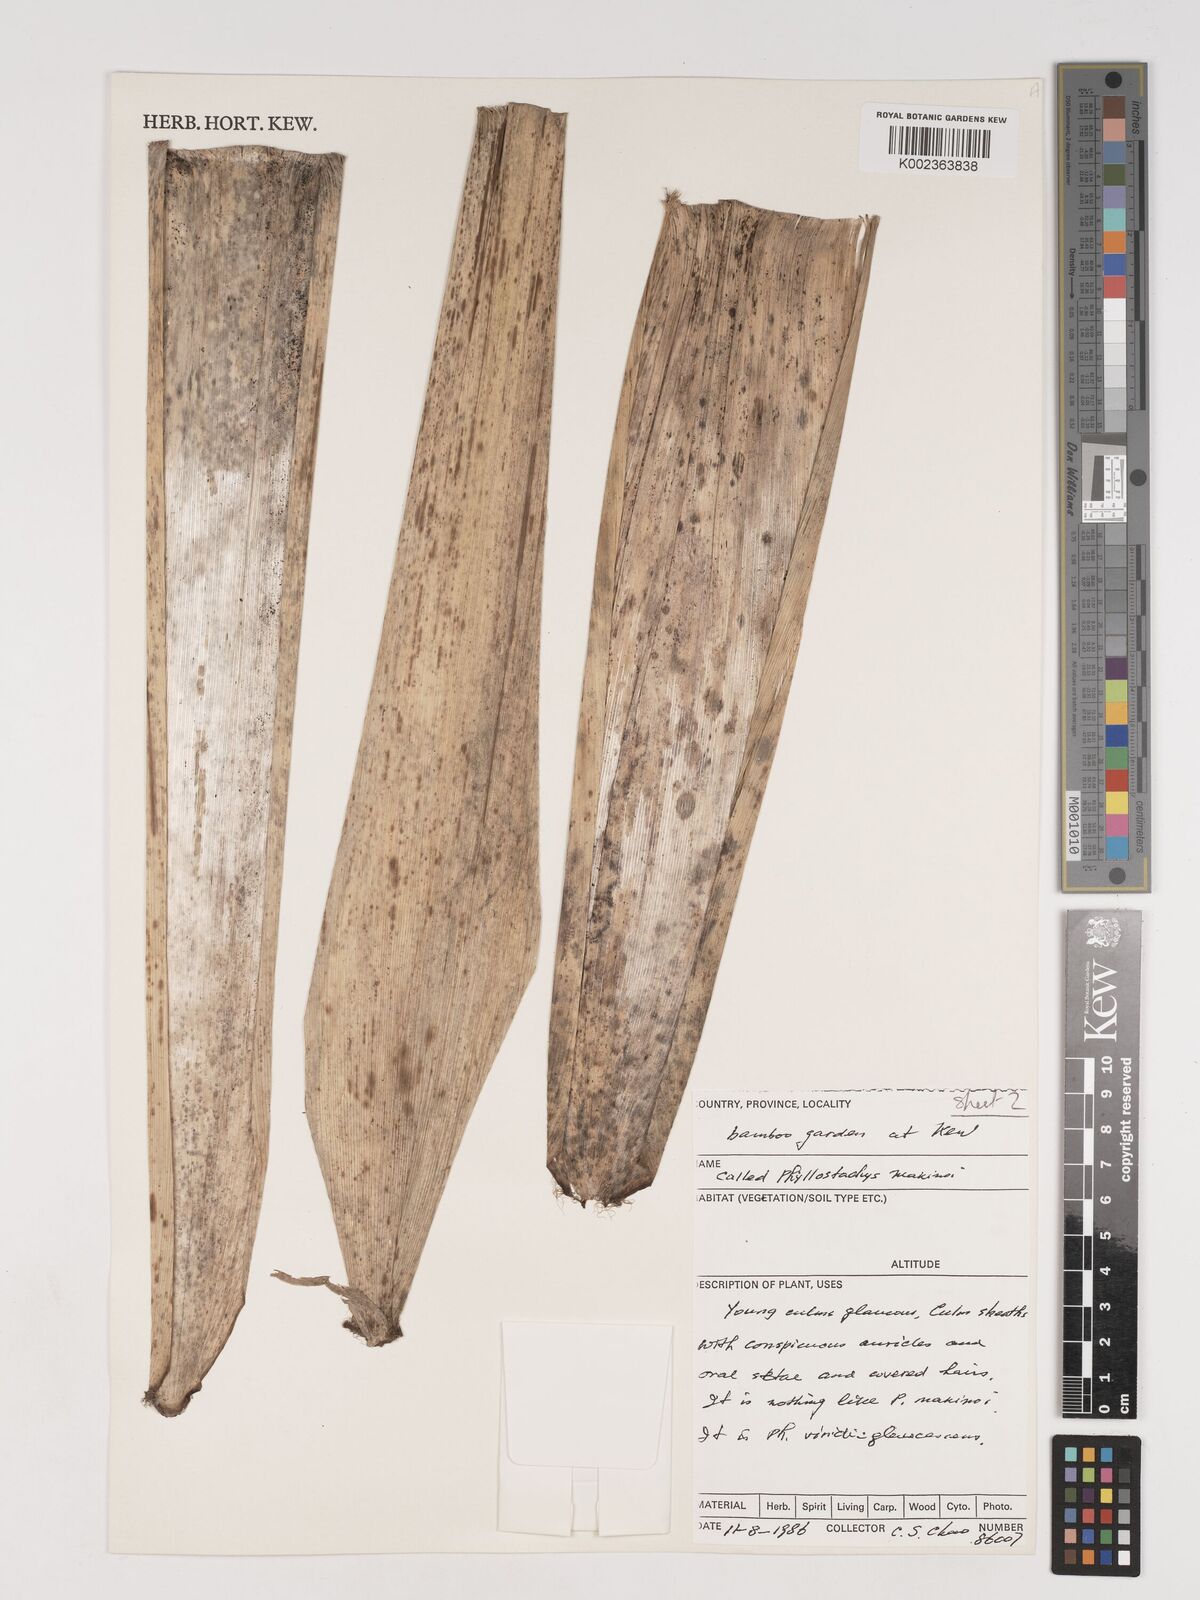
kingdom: Plantae
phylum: Tracheophyta
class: Liliopsida
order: Poales
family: Poaceae
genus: Phyllostachys
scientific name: Phyllostachys dulcis
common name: Sweetshoot bamboo
